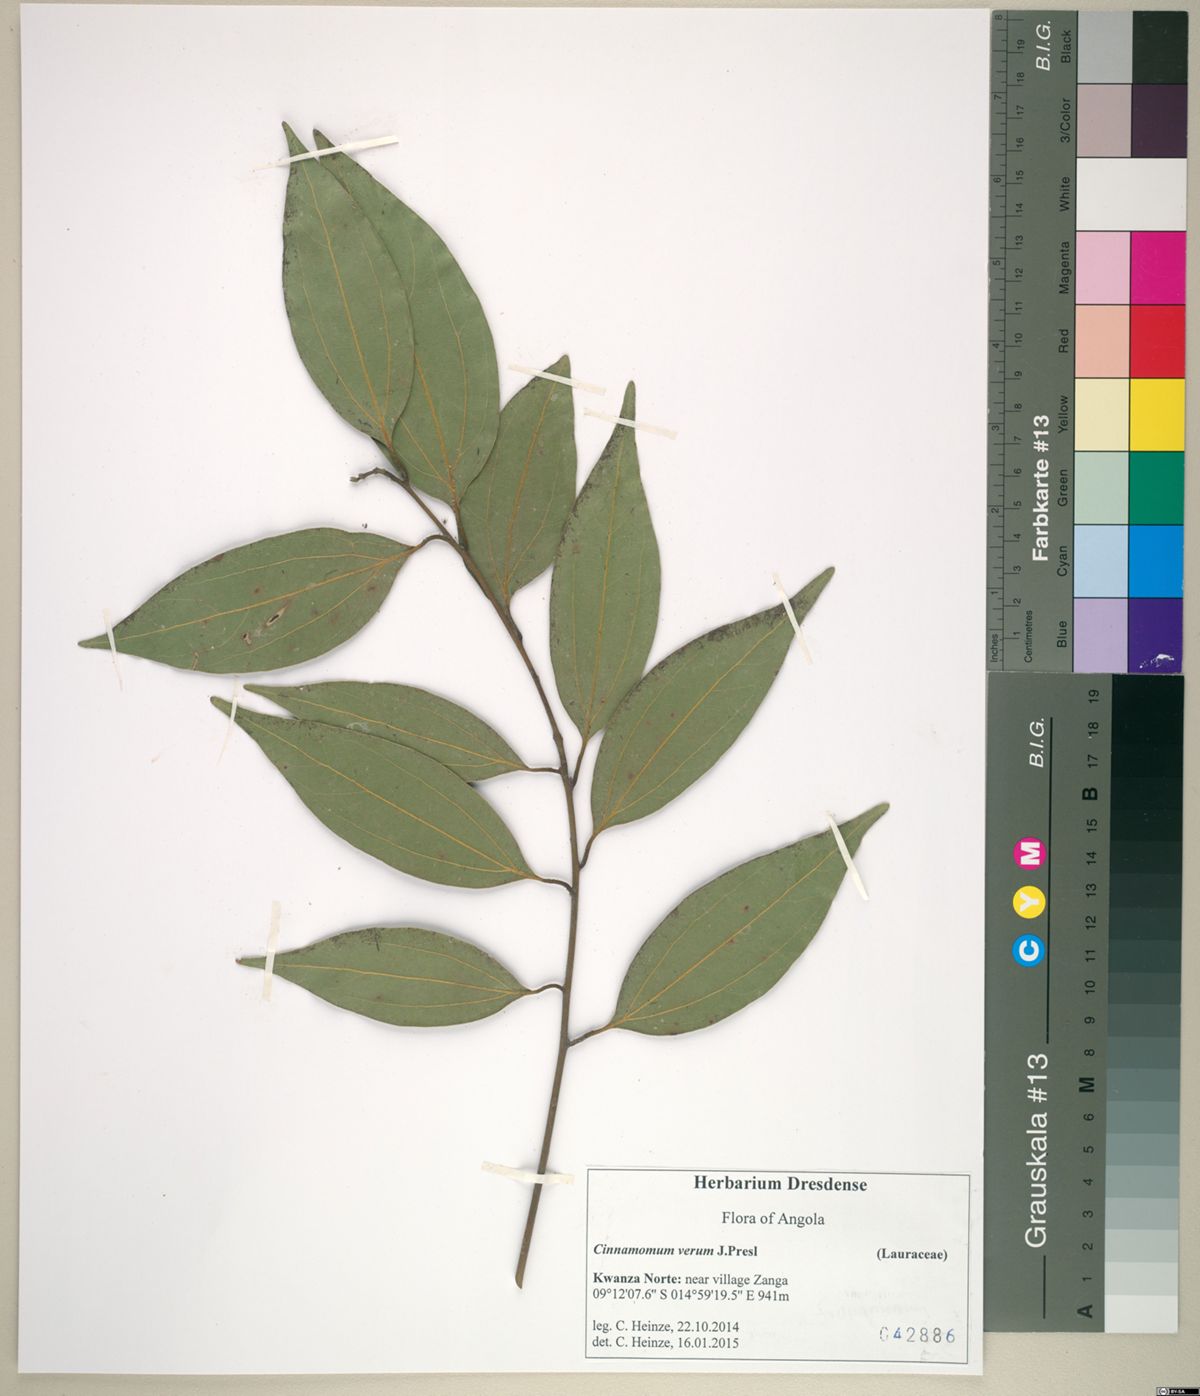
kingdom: Plantae
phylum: Tracheophyta
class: Magnoliopsida
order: Laurales
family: Lauraceae
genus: Cinnamomum
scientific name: Cinnamomum verum
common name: Cinnamon
